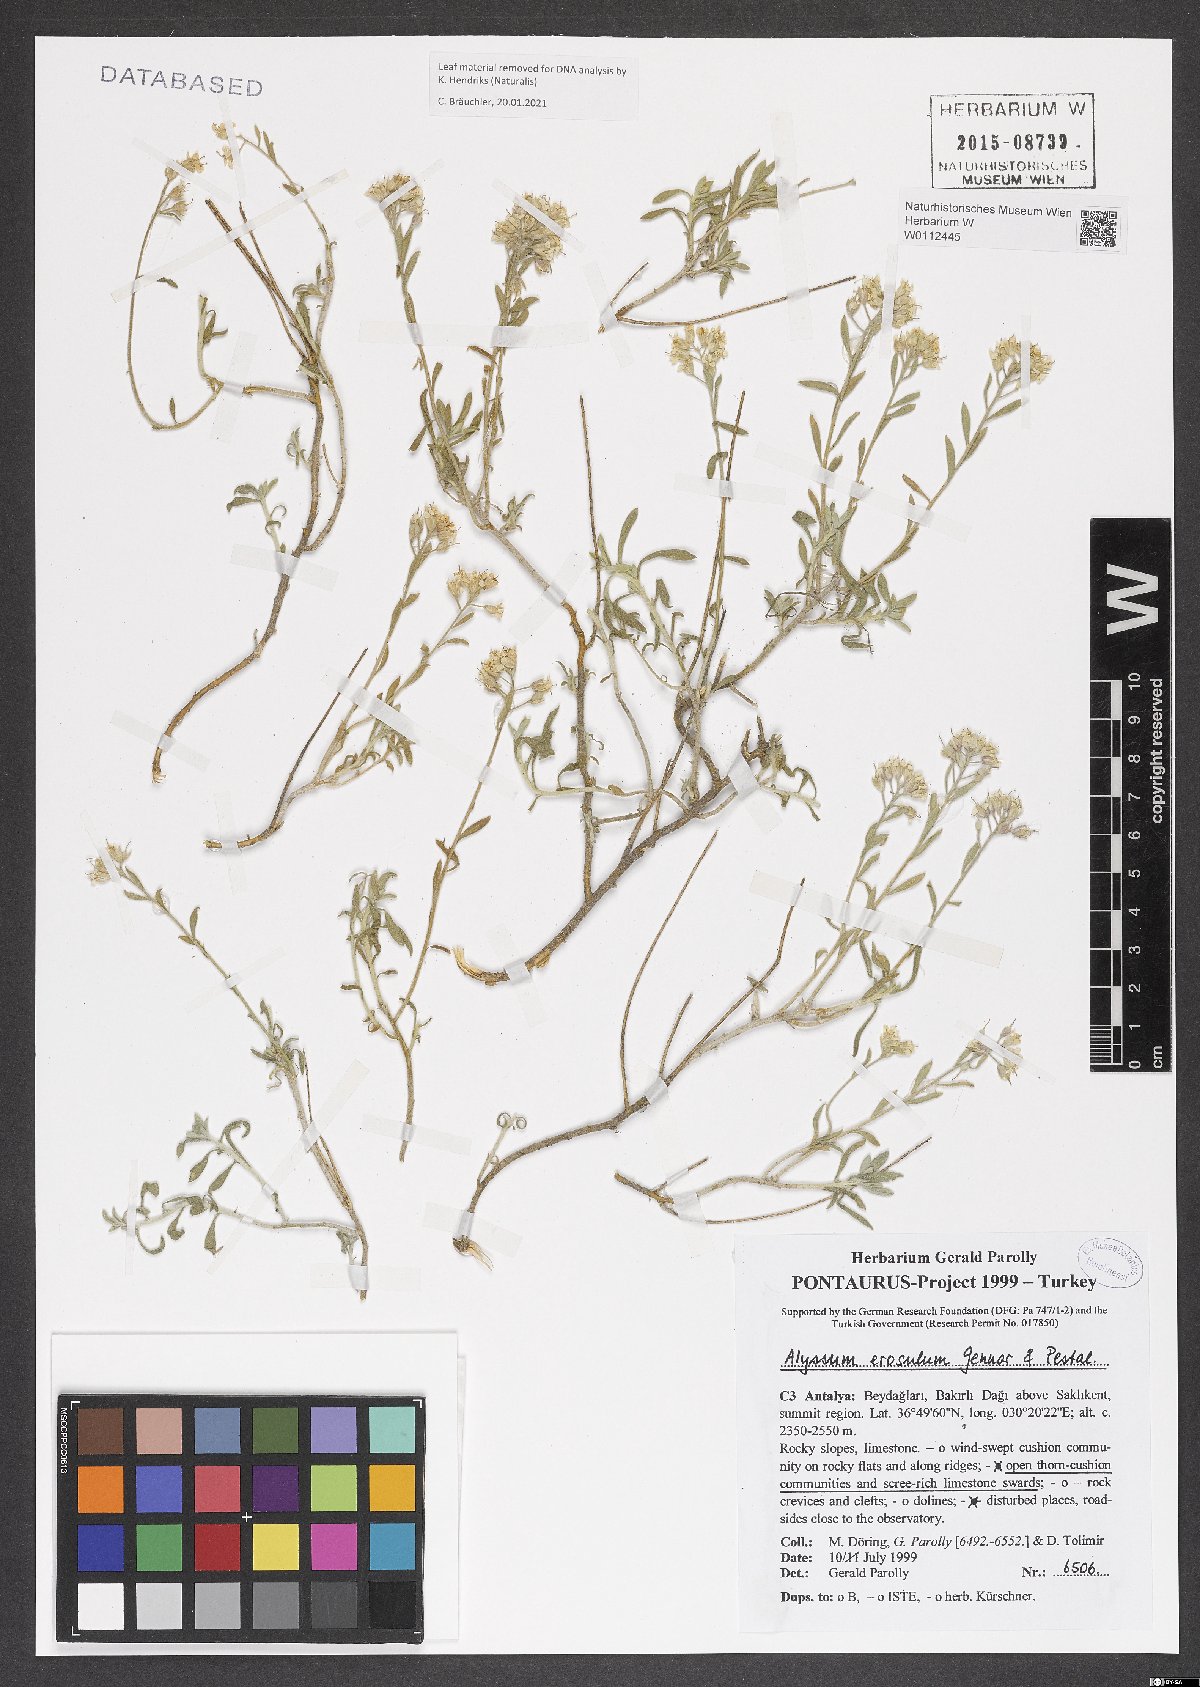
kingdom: Plantae
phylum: Tracheophyta
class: Magnoliopsida
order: Brassicales
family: Brassicaceae
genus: Alyssum
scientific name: Alyssum erosulum
